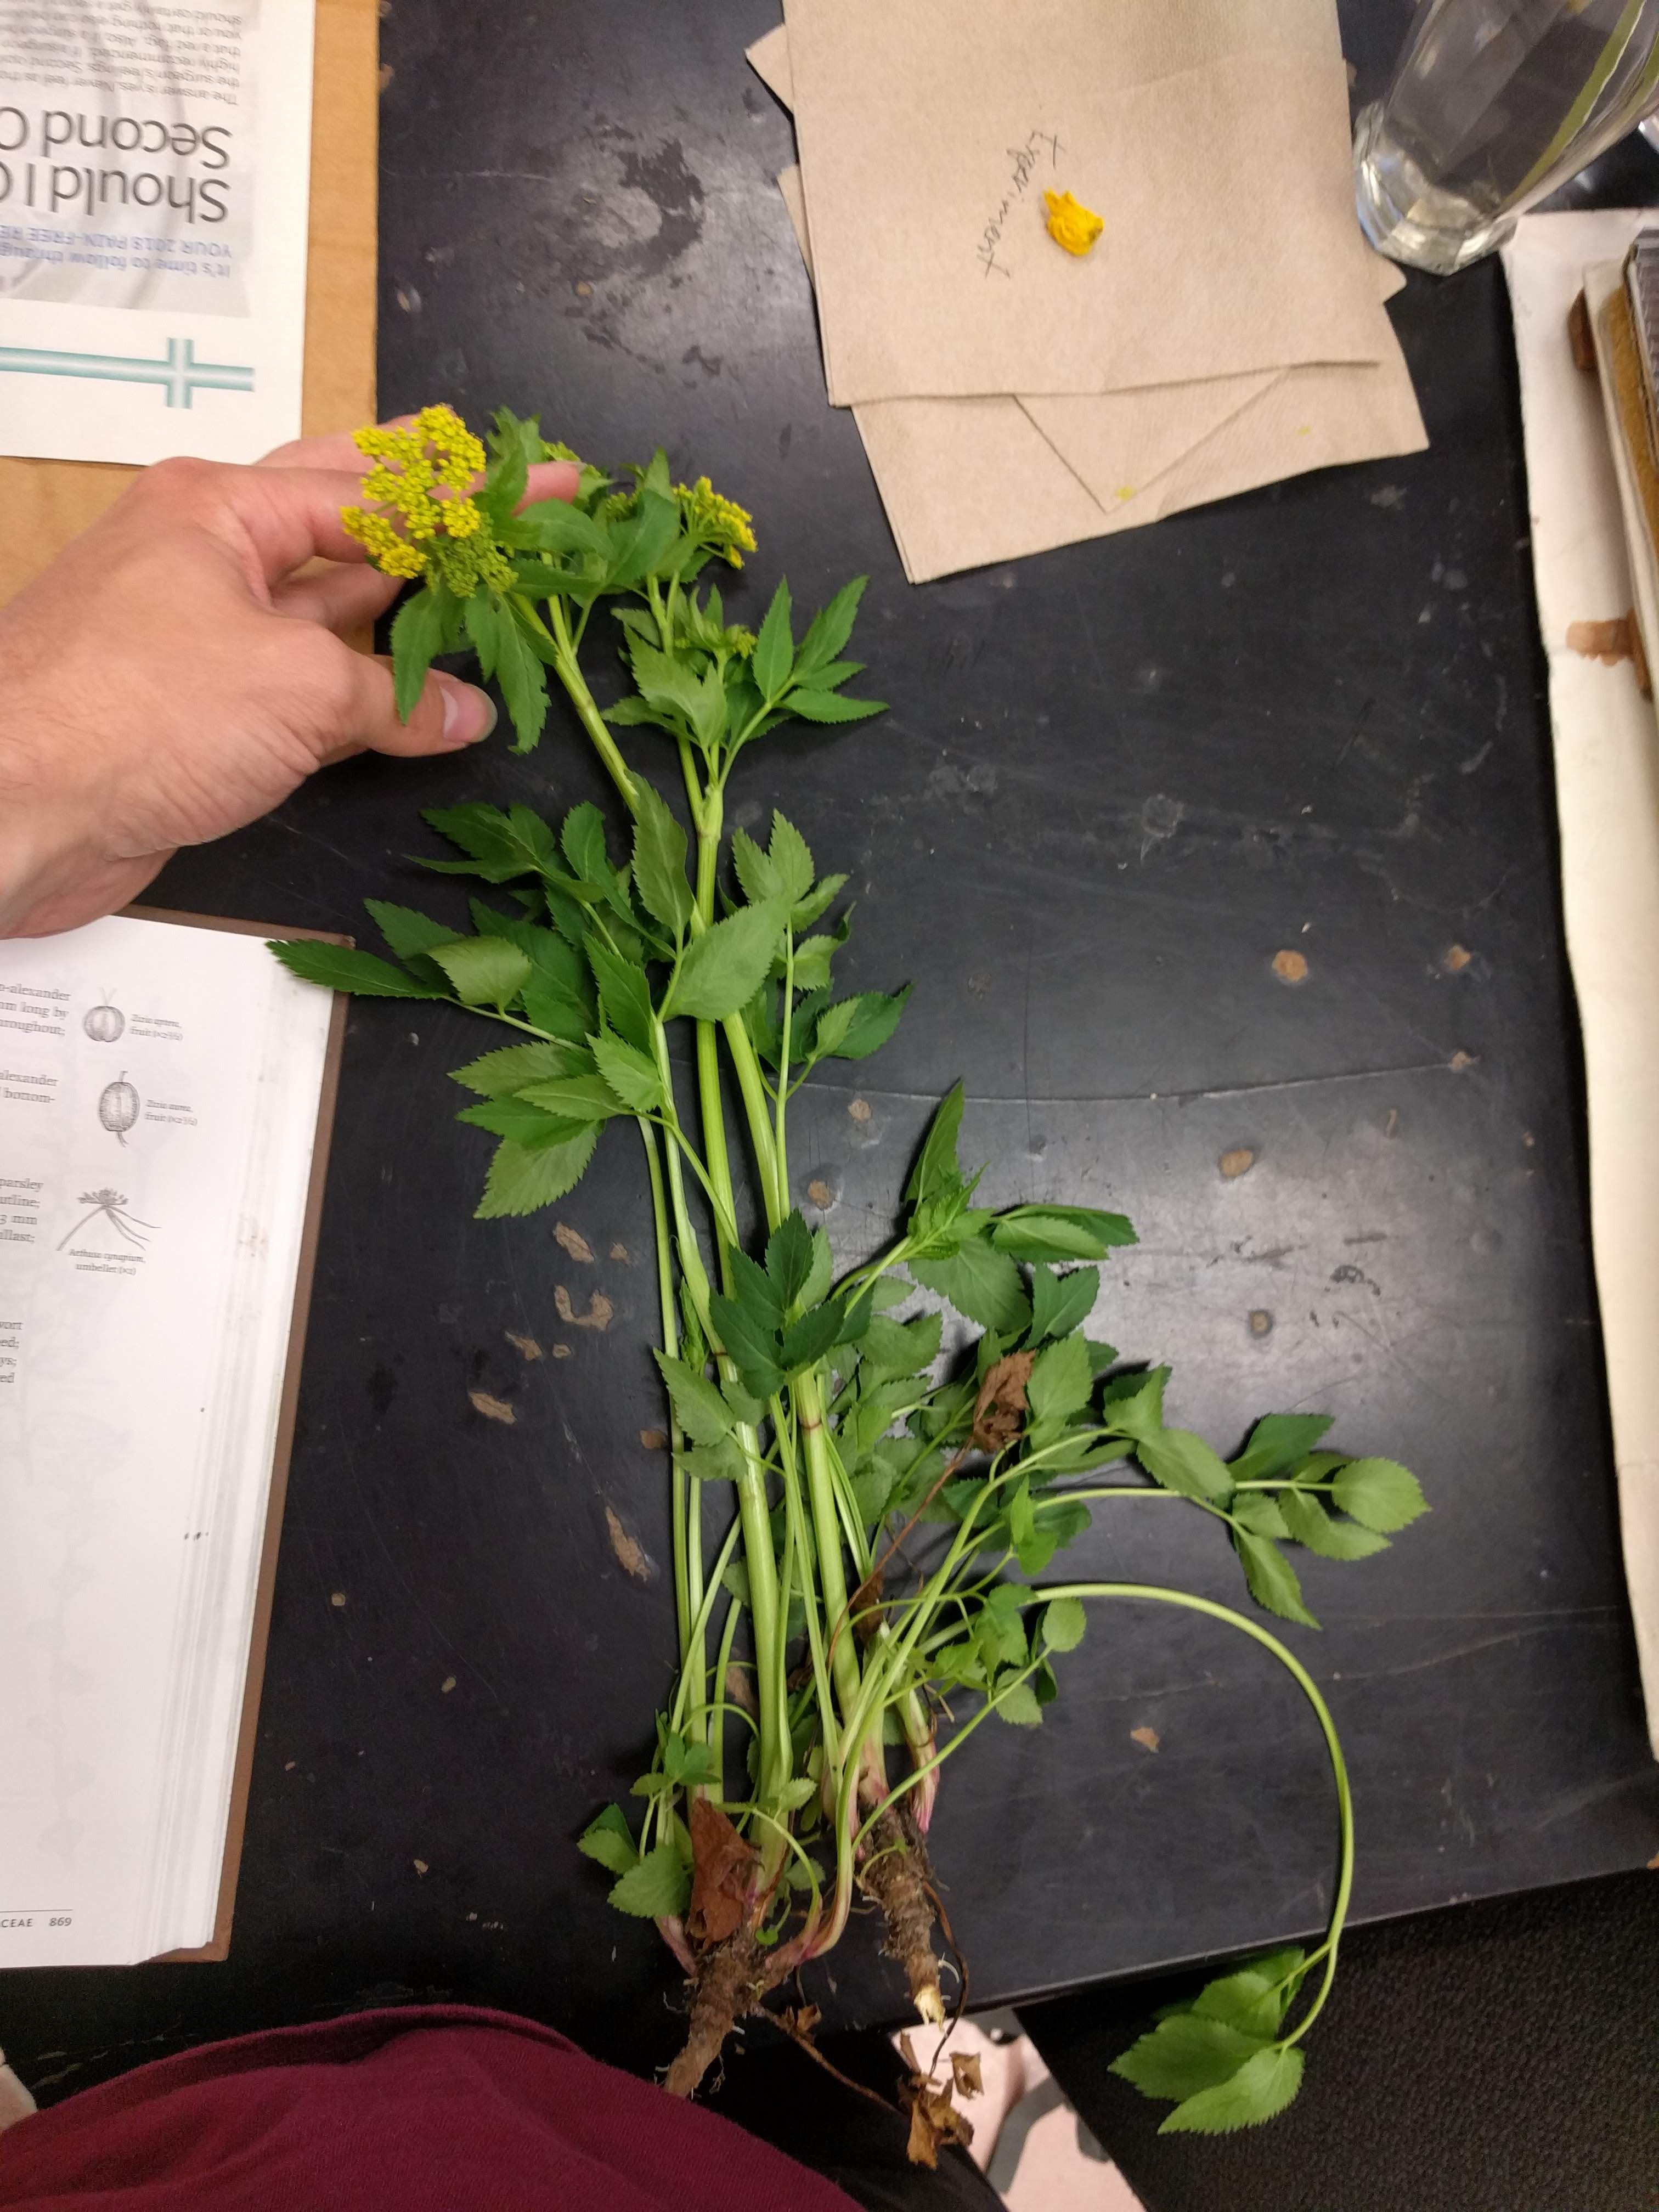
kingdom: Plantae
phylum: Tracheophyta
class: Magnoliopsida
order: Apiales
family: Apiaceae
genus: Zizia
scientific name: Zizia aurea
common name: Golden alexanders
